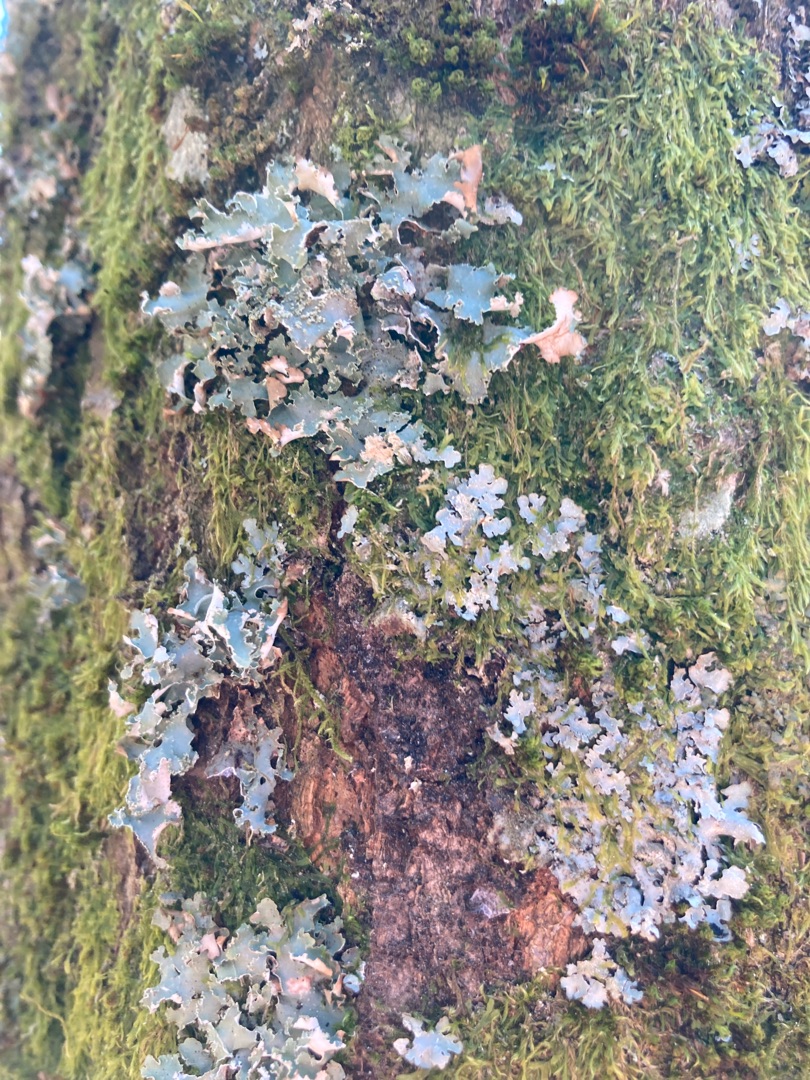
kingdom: Fungi
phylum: Ascomycota
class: Lecanoromycetes
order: Lecanorales
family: Parmeliaceae
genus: Platismatia
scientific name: Platismatia glauca
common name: Blågrå papirlav
